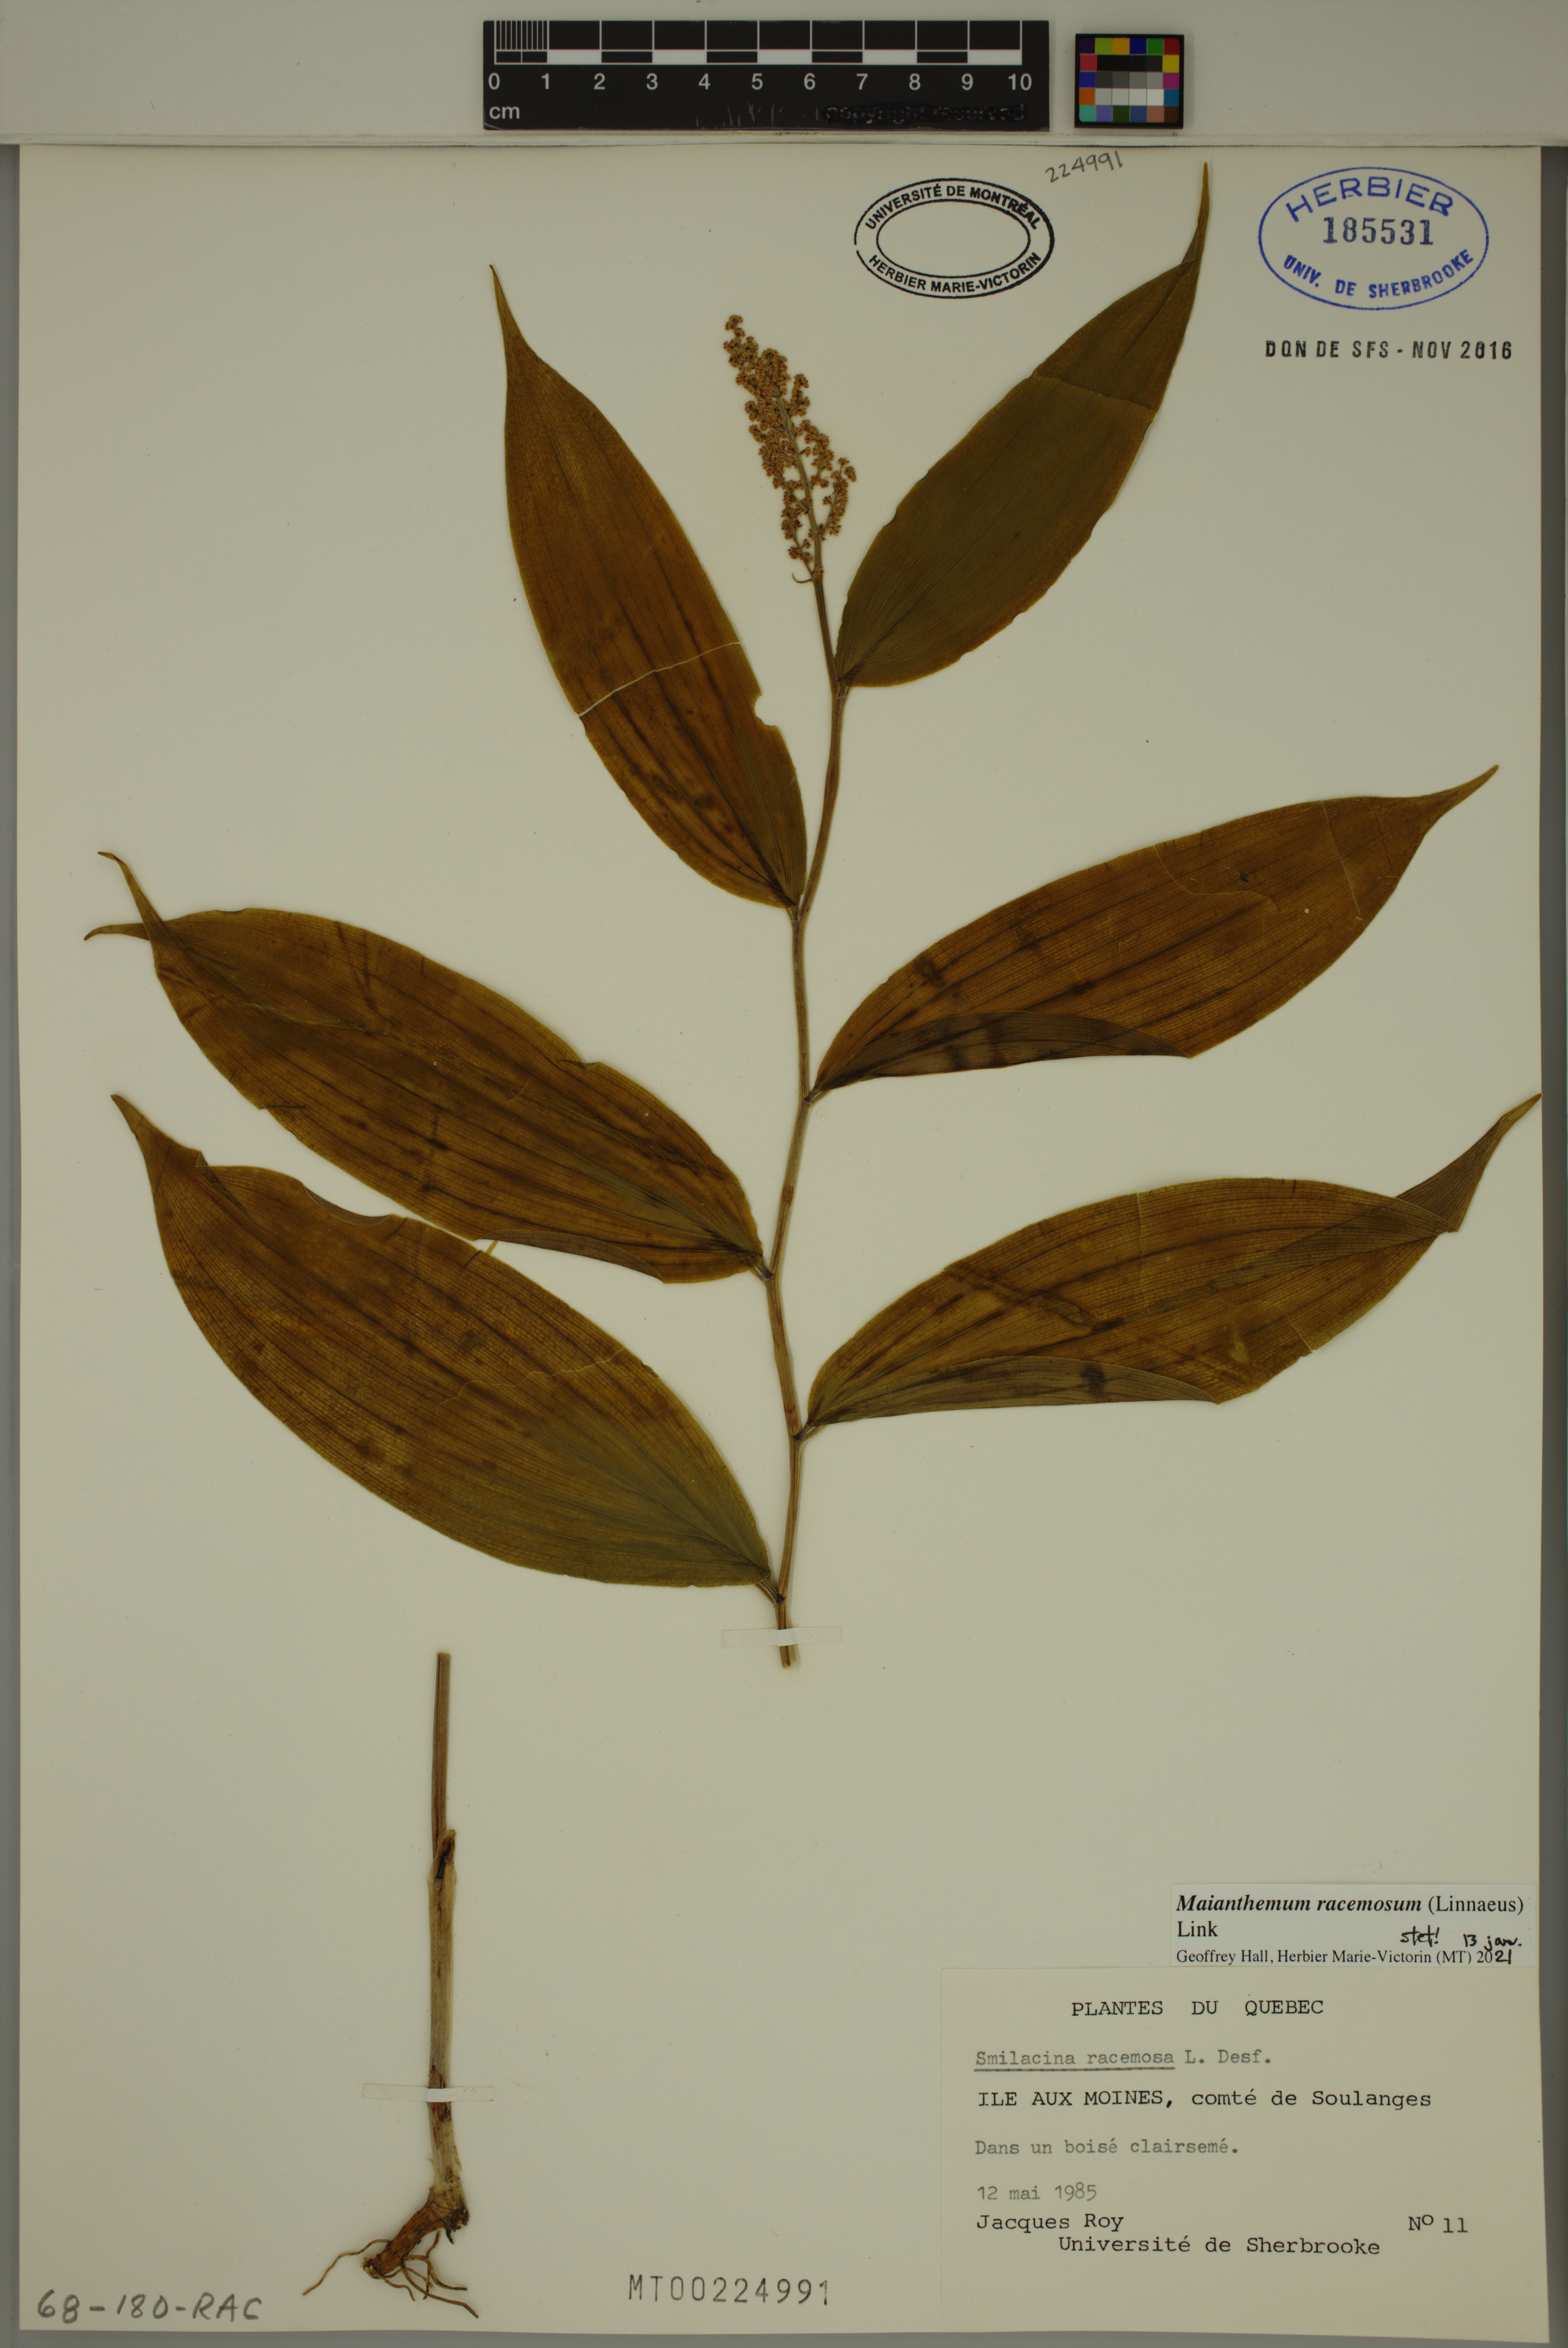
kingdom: Plantae
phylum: Tracheophyta
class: Liliopsida
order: Asparagales
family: Asparagaceae
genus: Maianthemum
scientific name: Maianthemum racemosum
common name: False spikenard
